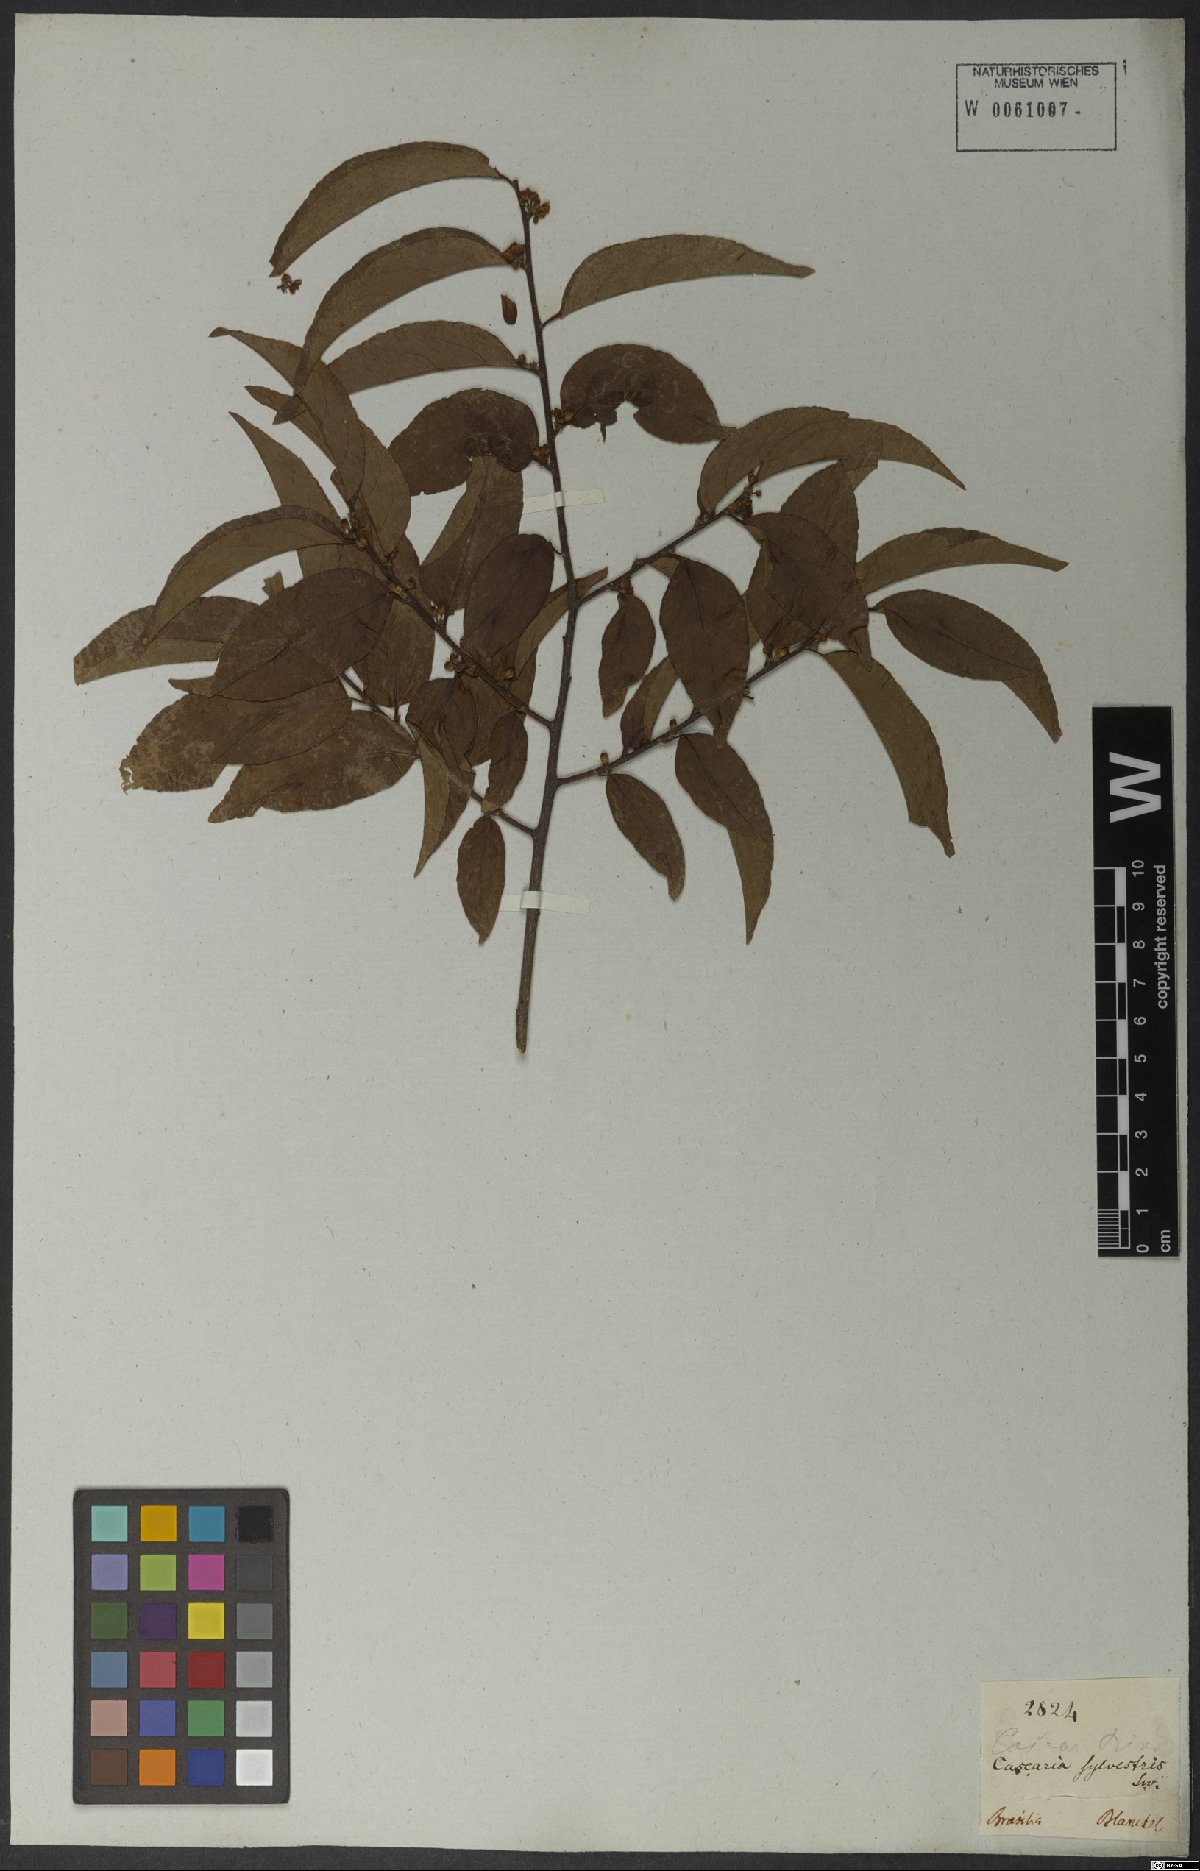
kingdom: Plantae
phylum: Tracheophyta
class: Magnoliopsida
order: Malpighiales
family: Salicaceae
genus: Casearia
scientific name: Casearia ulmifolia
